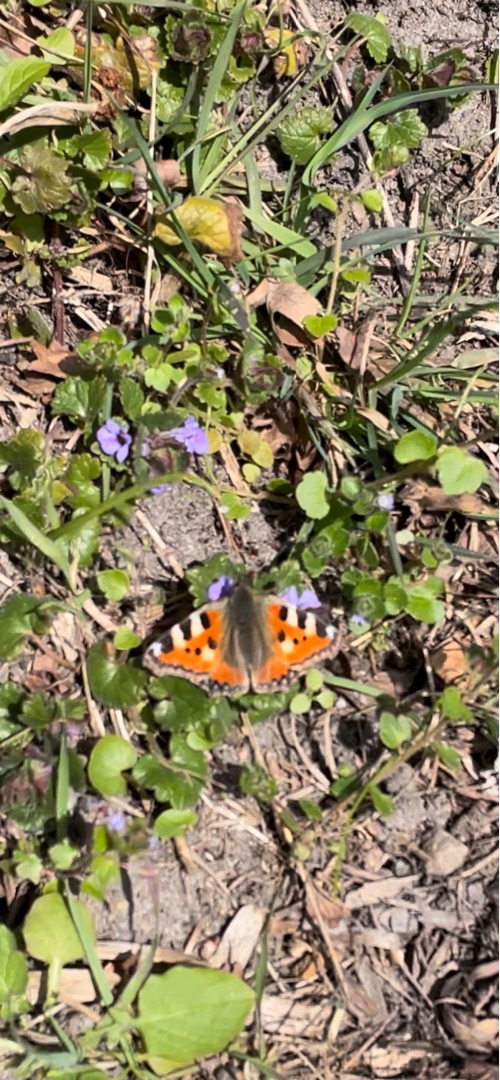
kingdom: Animalia
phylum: Arthropoda
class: Insecta
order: Lepidoptera
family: Nymphalidae
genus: Aglais
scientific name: Aglais urticae
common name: Nældens takvinge
